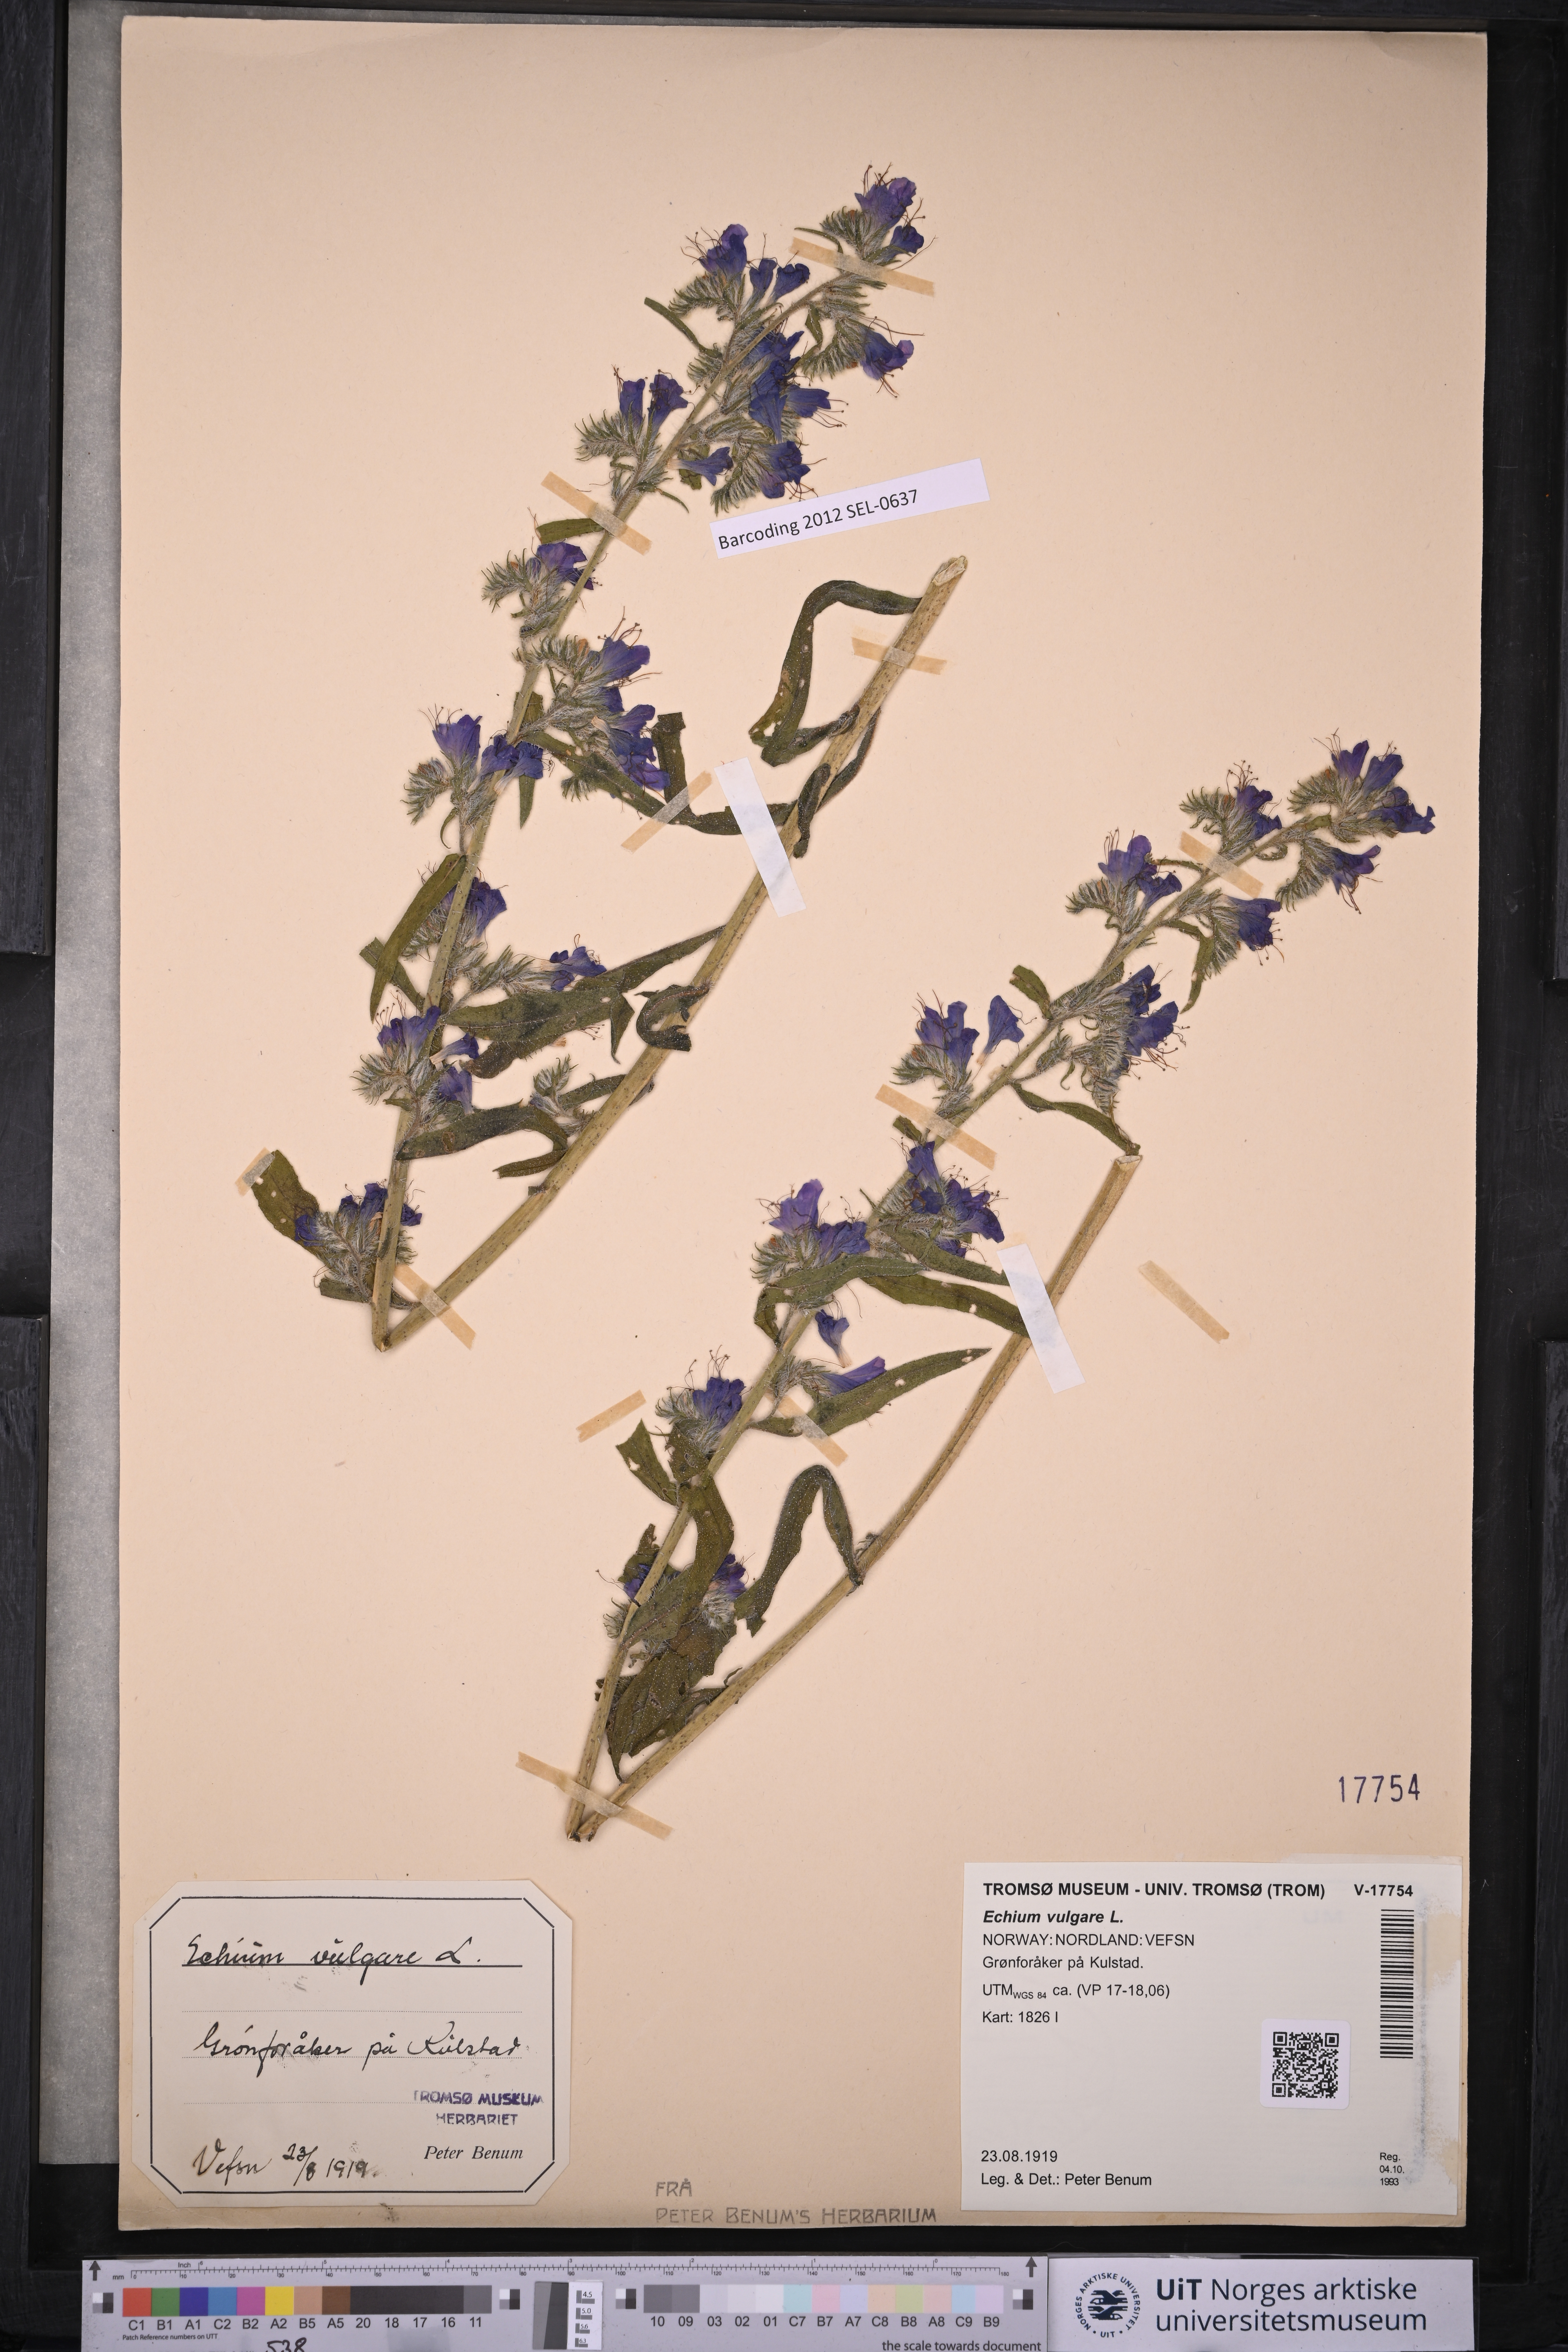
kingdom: Plantae
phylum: Tracheophyta
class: Magnoliopsida
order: Boraginales
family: Boraginaceae
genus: Echium
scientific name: Echium vulgare
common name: Common viper's bugloss
